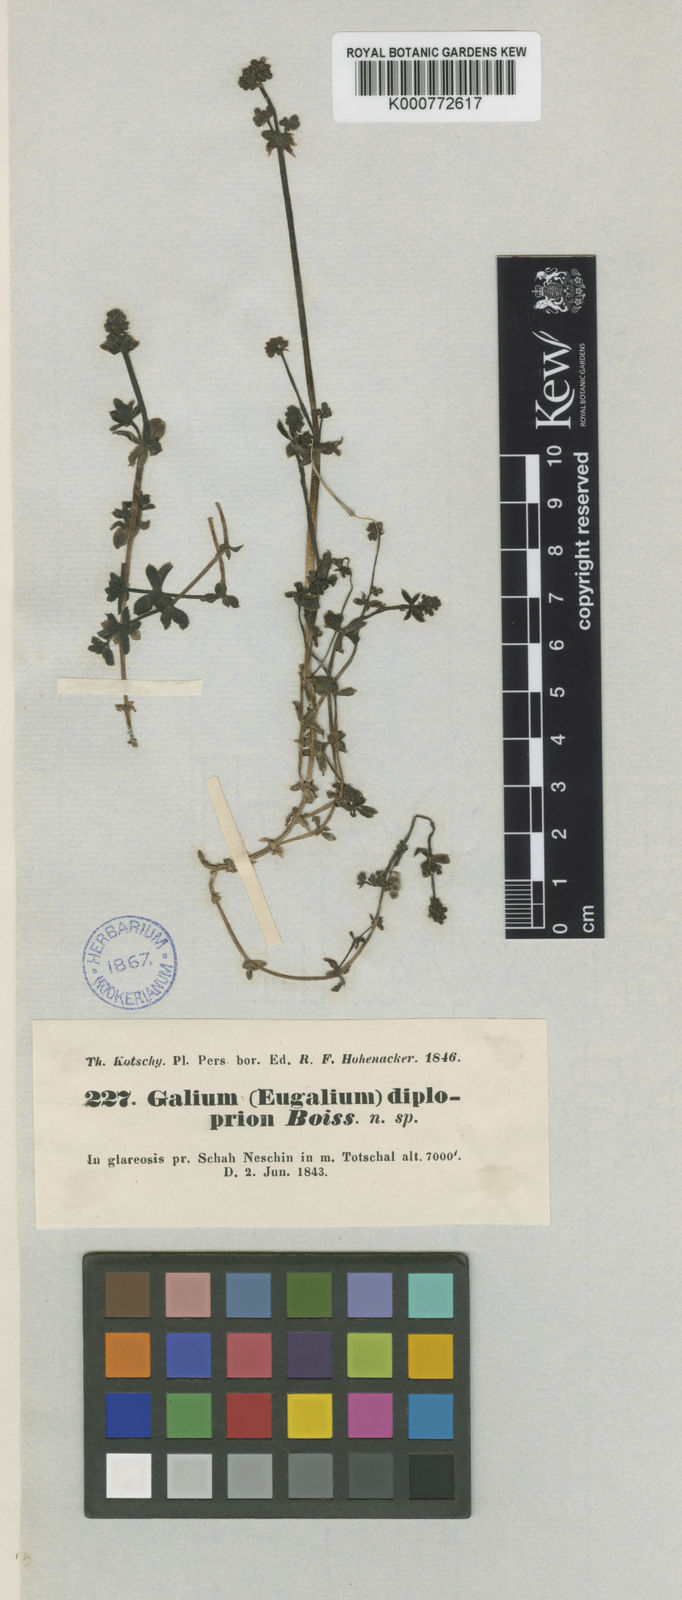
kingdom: Plantae
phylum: Tracheophyta
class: Magnoliopsida
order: Gentianales
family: Rubiaceae
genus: Galium
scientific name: Galium diploprion
